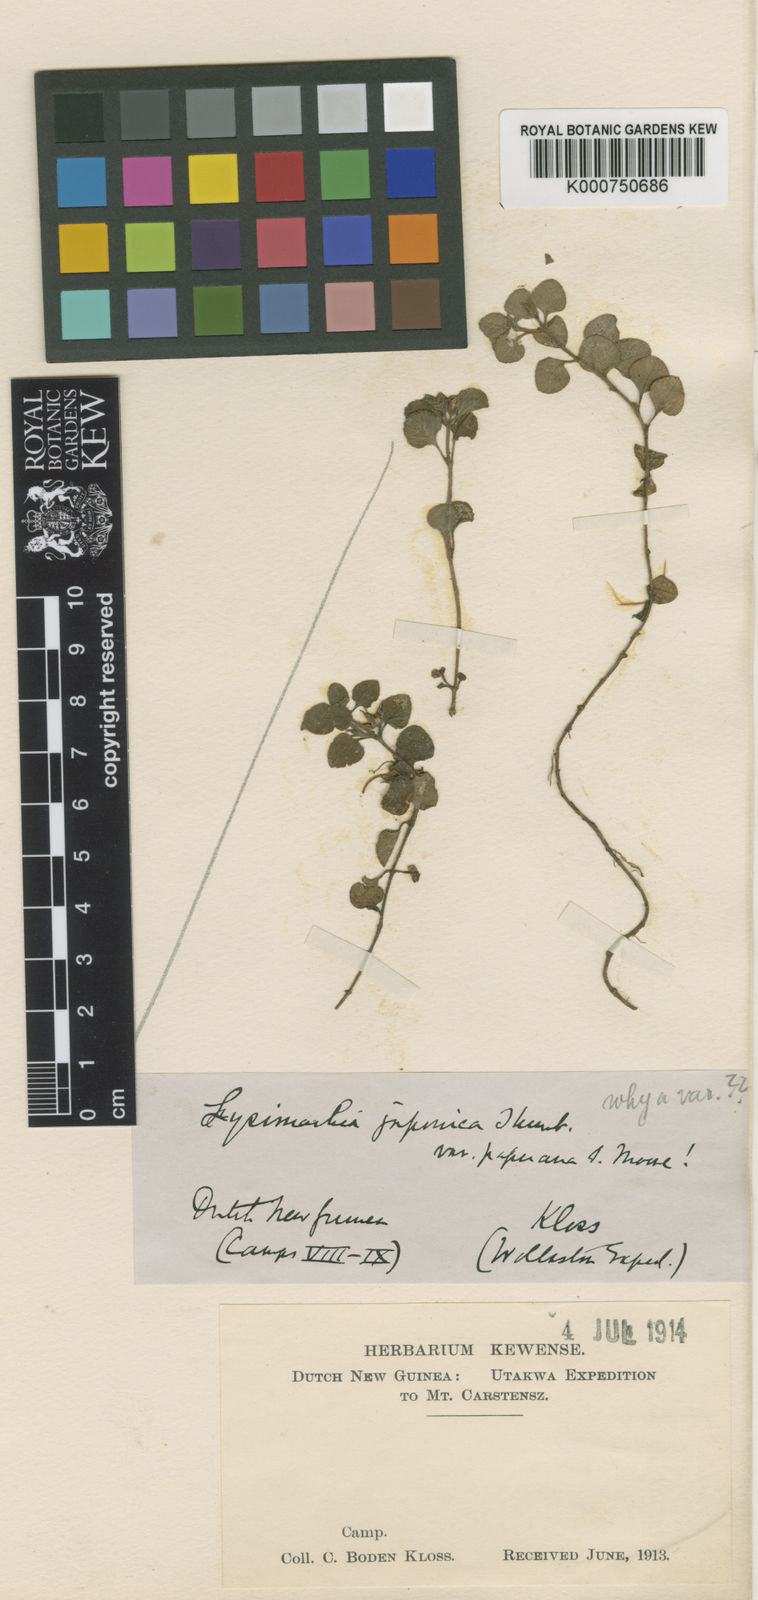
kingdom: Plantae
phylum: Tracheophyta
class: Magnoliopsida
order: Ericales
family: Primulaceae
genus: Lysimachia
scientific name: Lysimachia japonica
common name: Japanese yellow loosestrife
